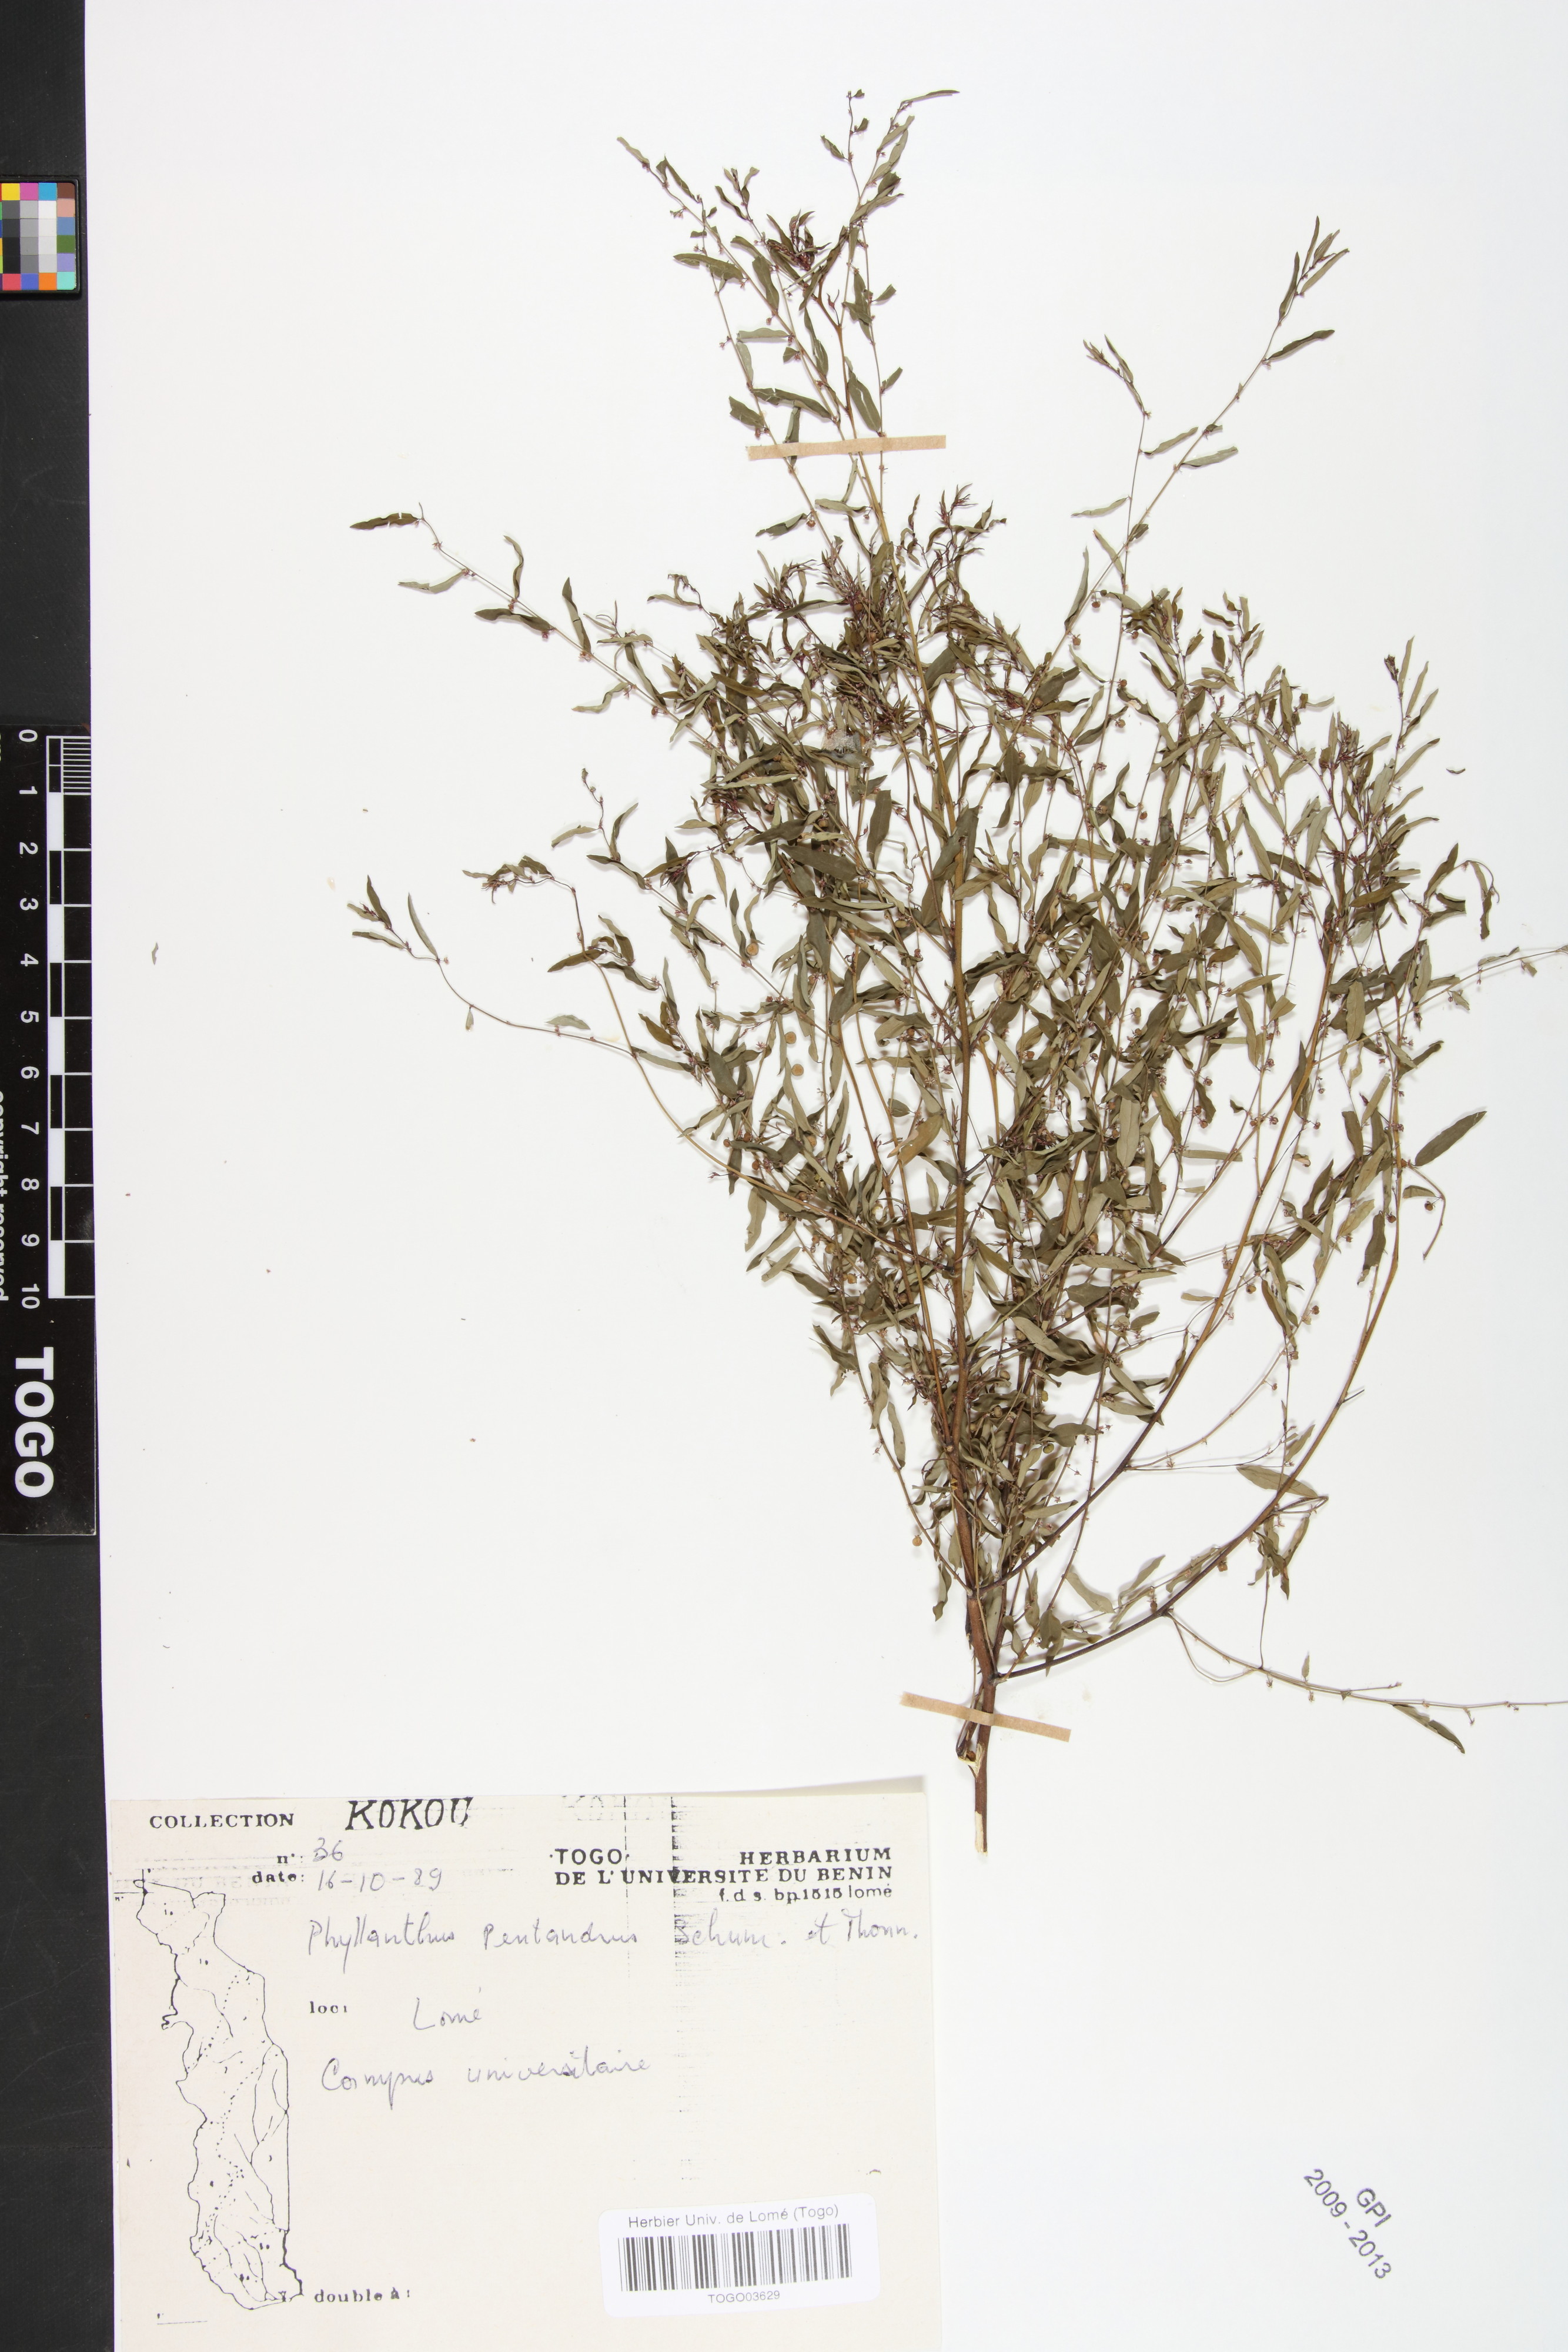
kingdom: Plantae
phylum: Tracheophyta
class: Magnoliopsida
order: Malpighiales
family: Phyllanthaceae
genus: Phyllanthus
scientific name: Phyllanthus pentandrus
